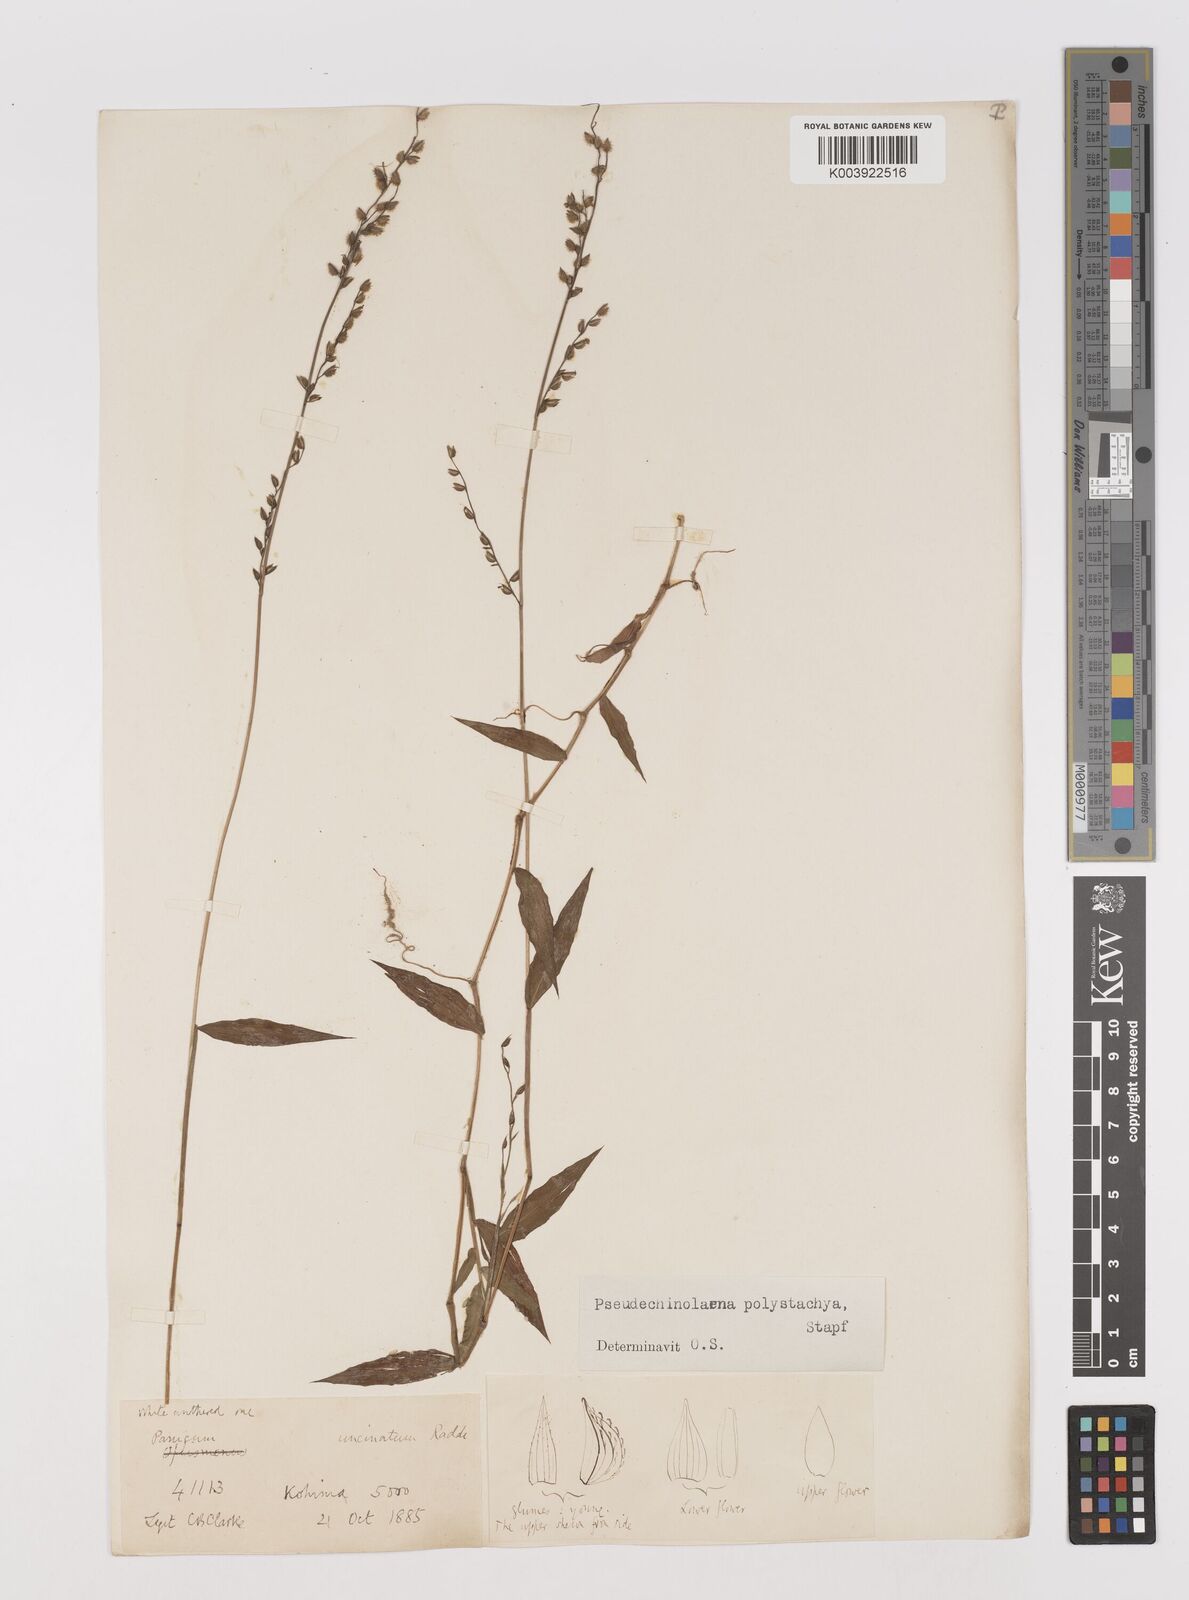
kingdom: Plantae
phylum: Tracheophyta
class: Liliopsida
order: Poales
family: Poaceae
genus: Pseudechinolaena
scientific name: Pseudechinolaena polystachya
